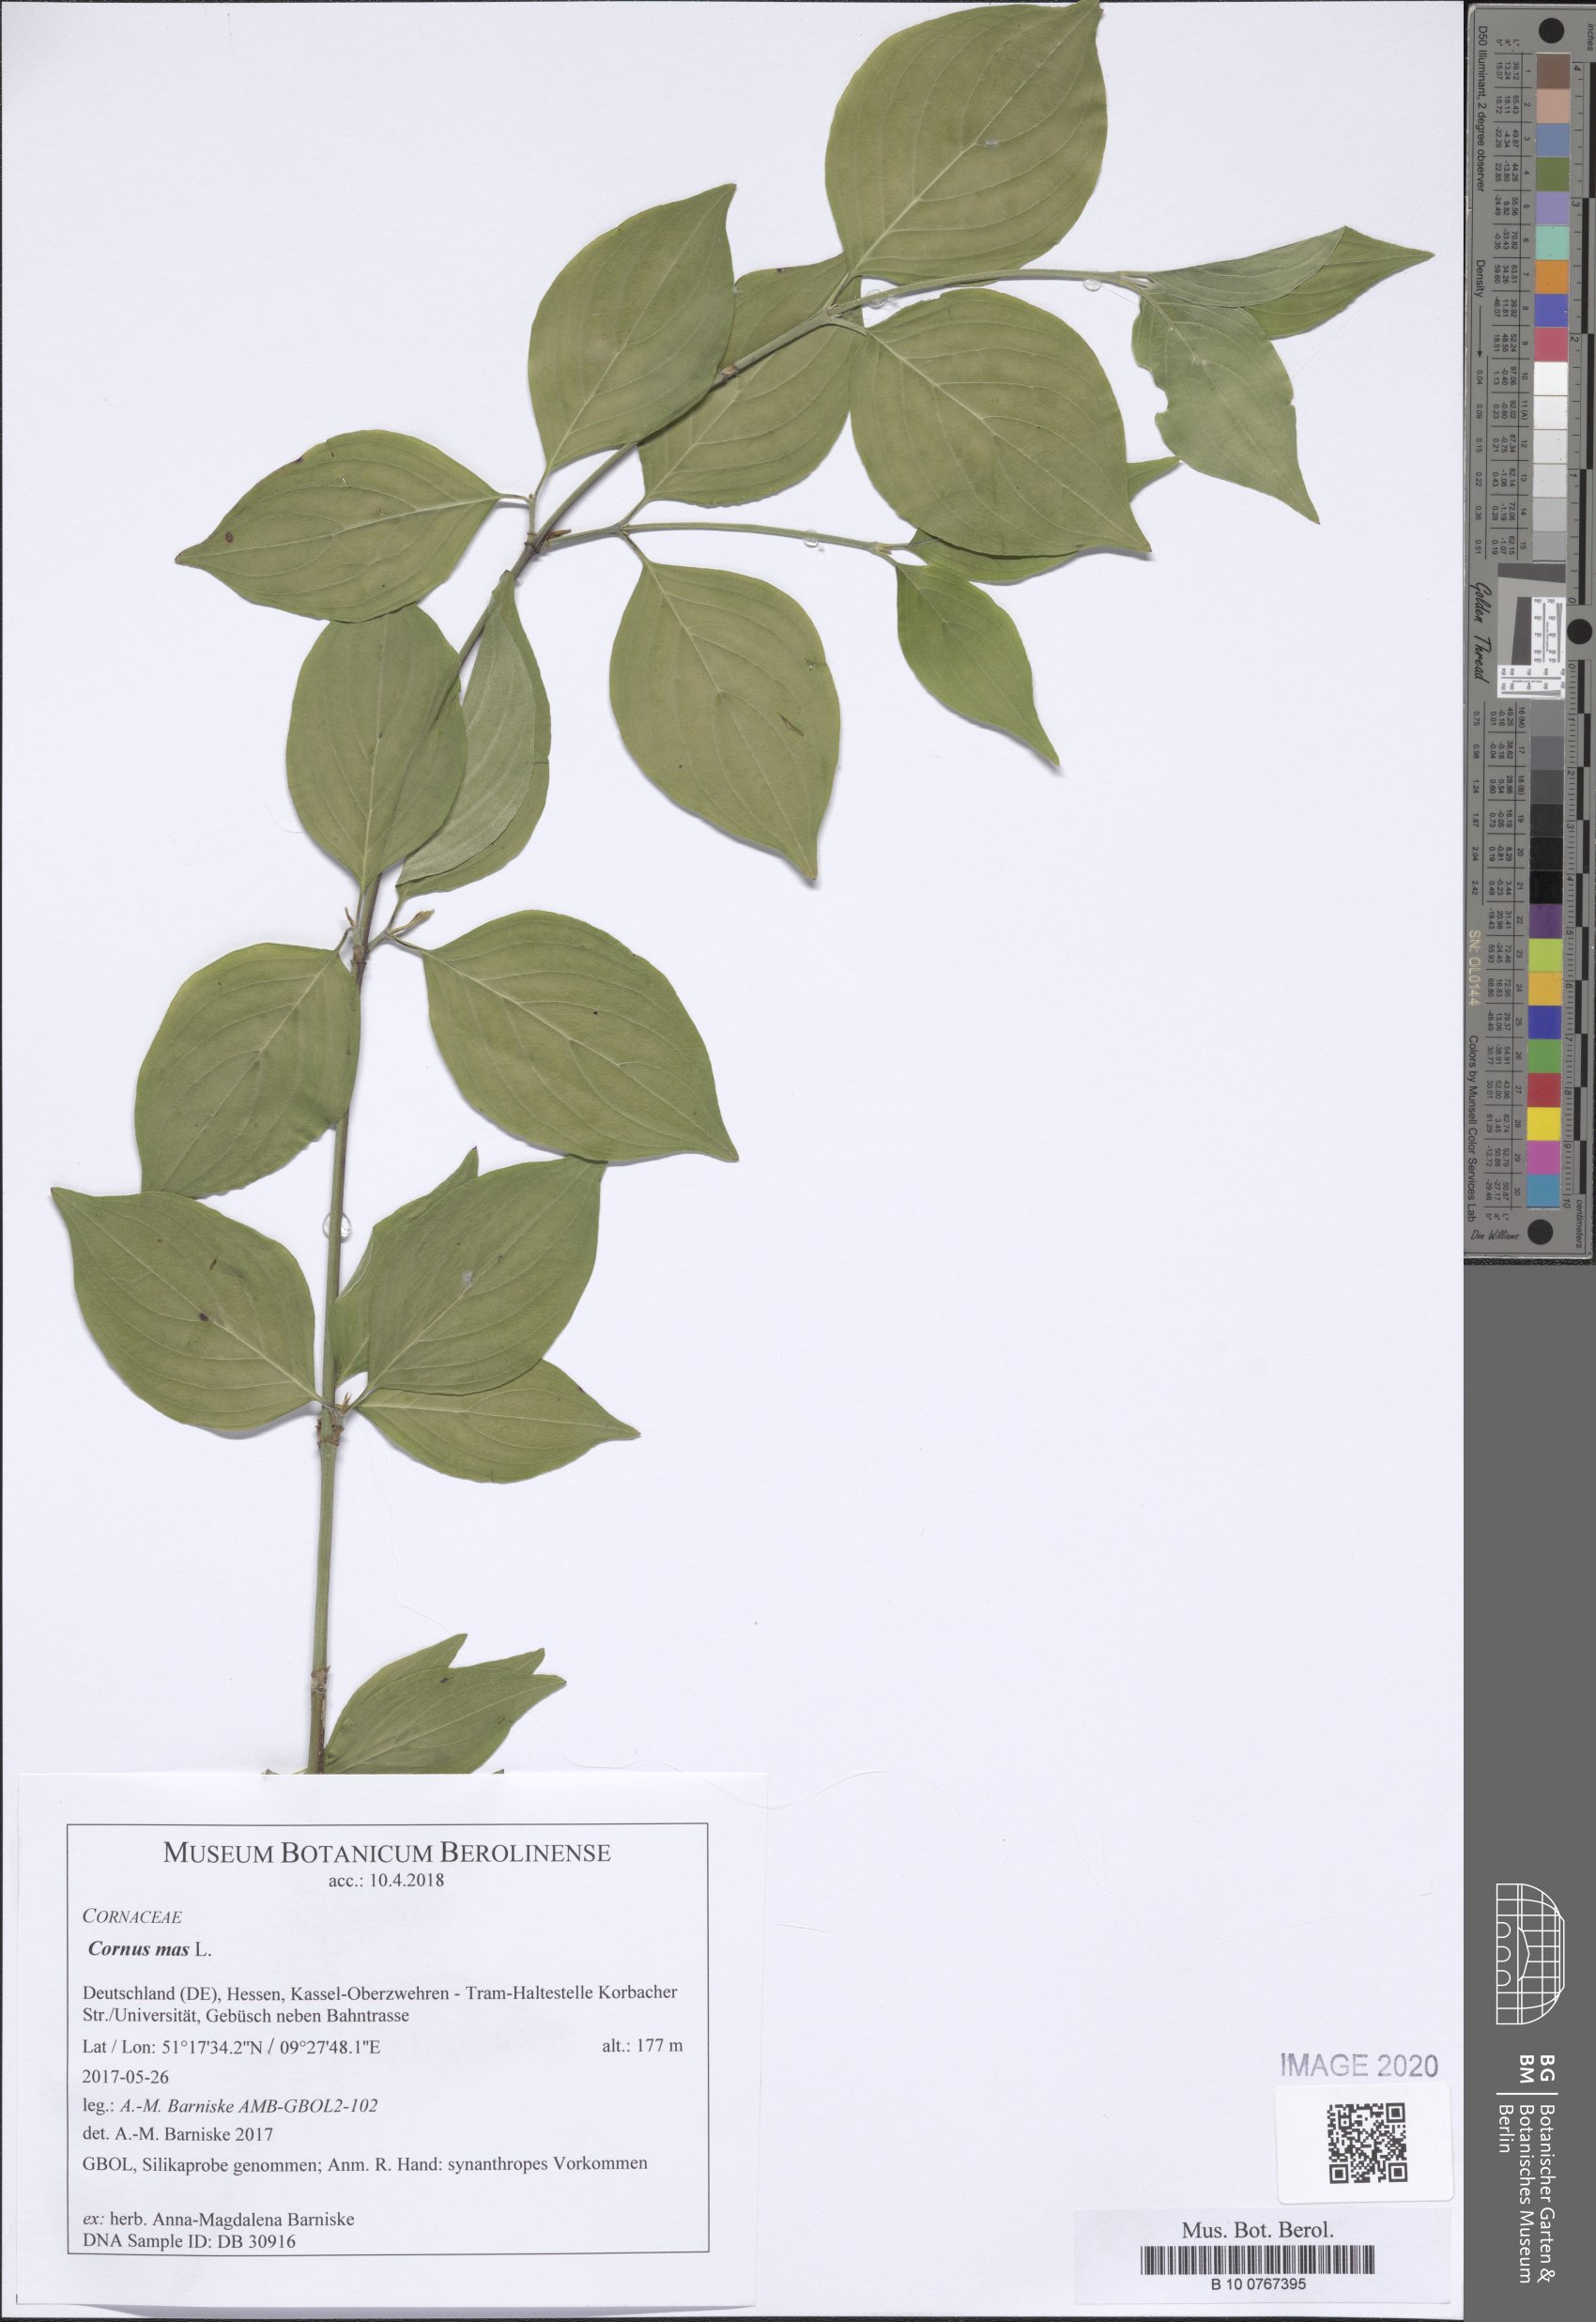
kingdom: Plantae
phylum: Tracheophyta
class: Magnoliopsida
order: Cornales
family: Cornaceae
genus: Cornus
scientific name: Cornus mas
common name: Cornelian-cherry
